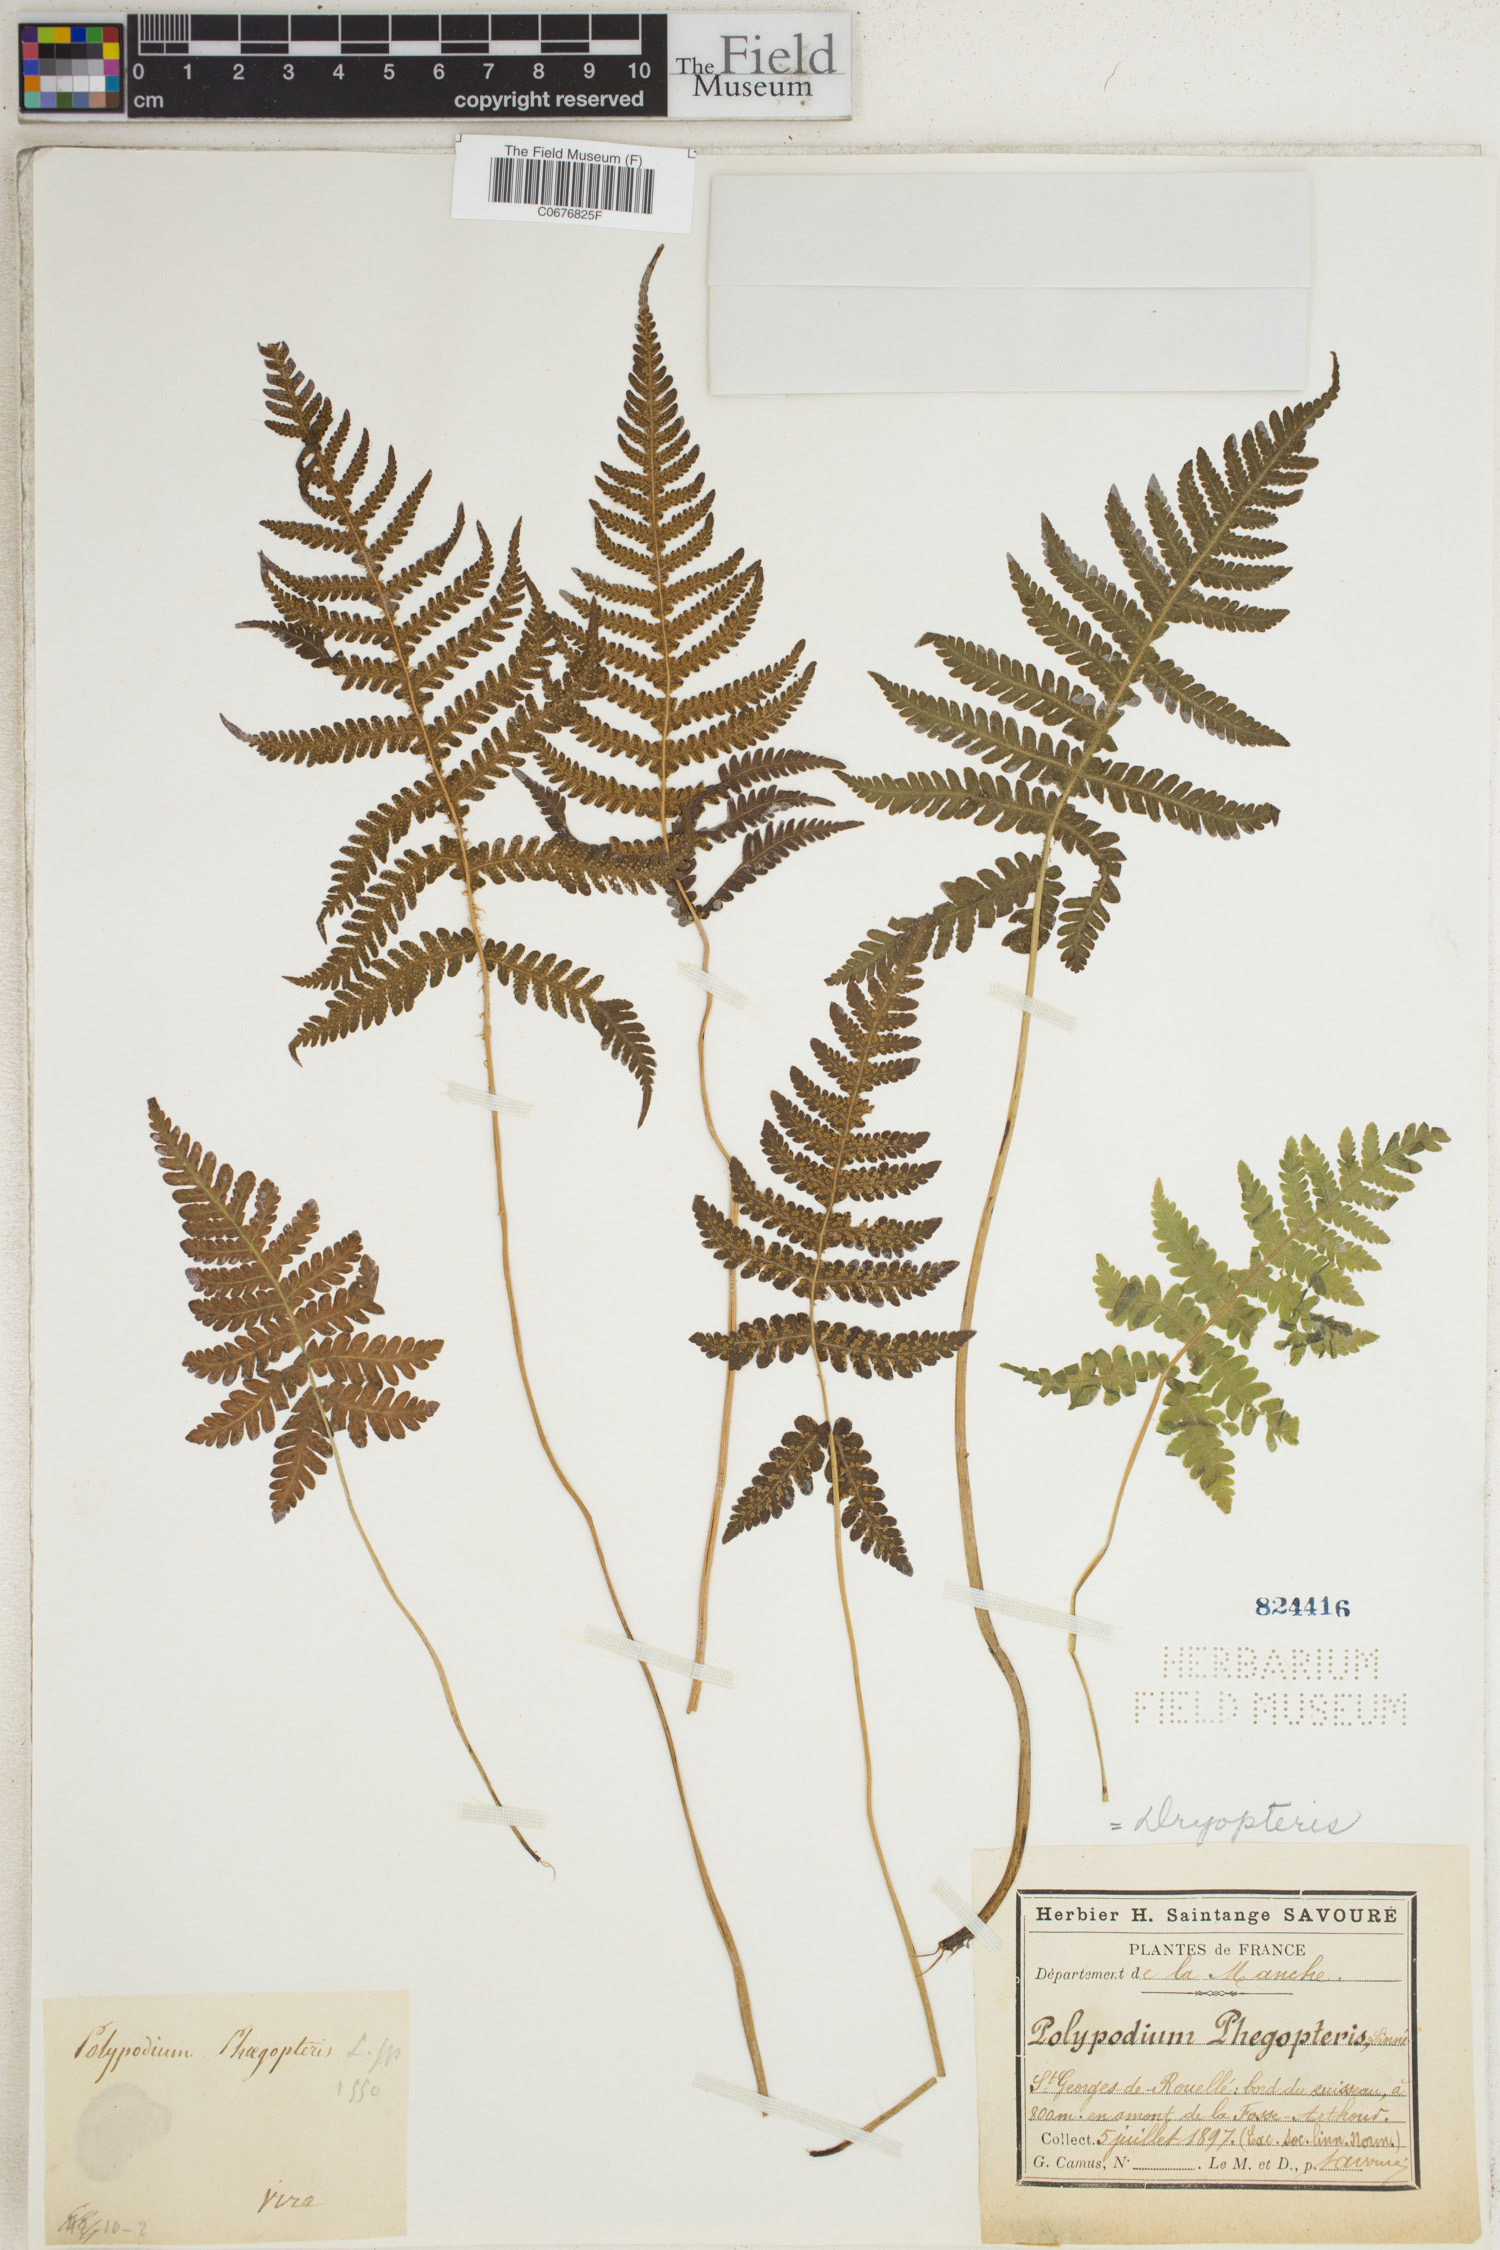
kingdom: Plantae
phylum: Tracheophyta
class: Polypodiopsida
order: Polypodiales
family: Thelypteridaceae
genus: Phegopteris
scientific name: Phegopteris connectilis
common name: Beech fern
